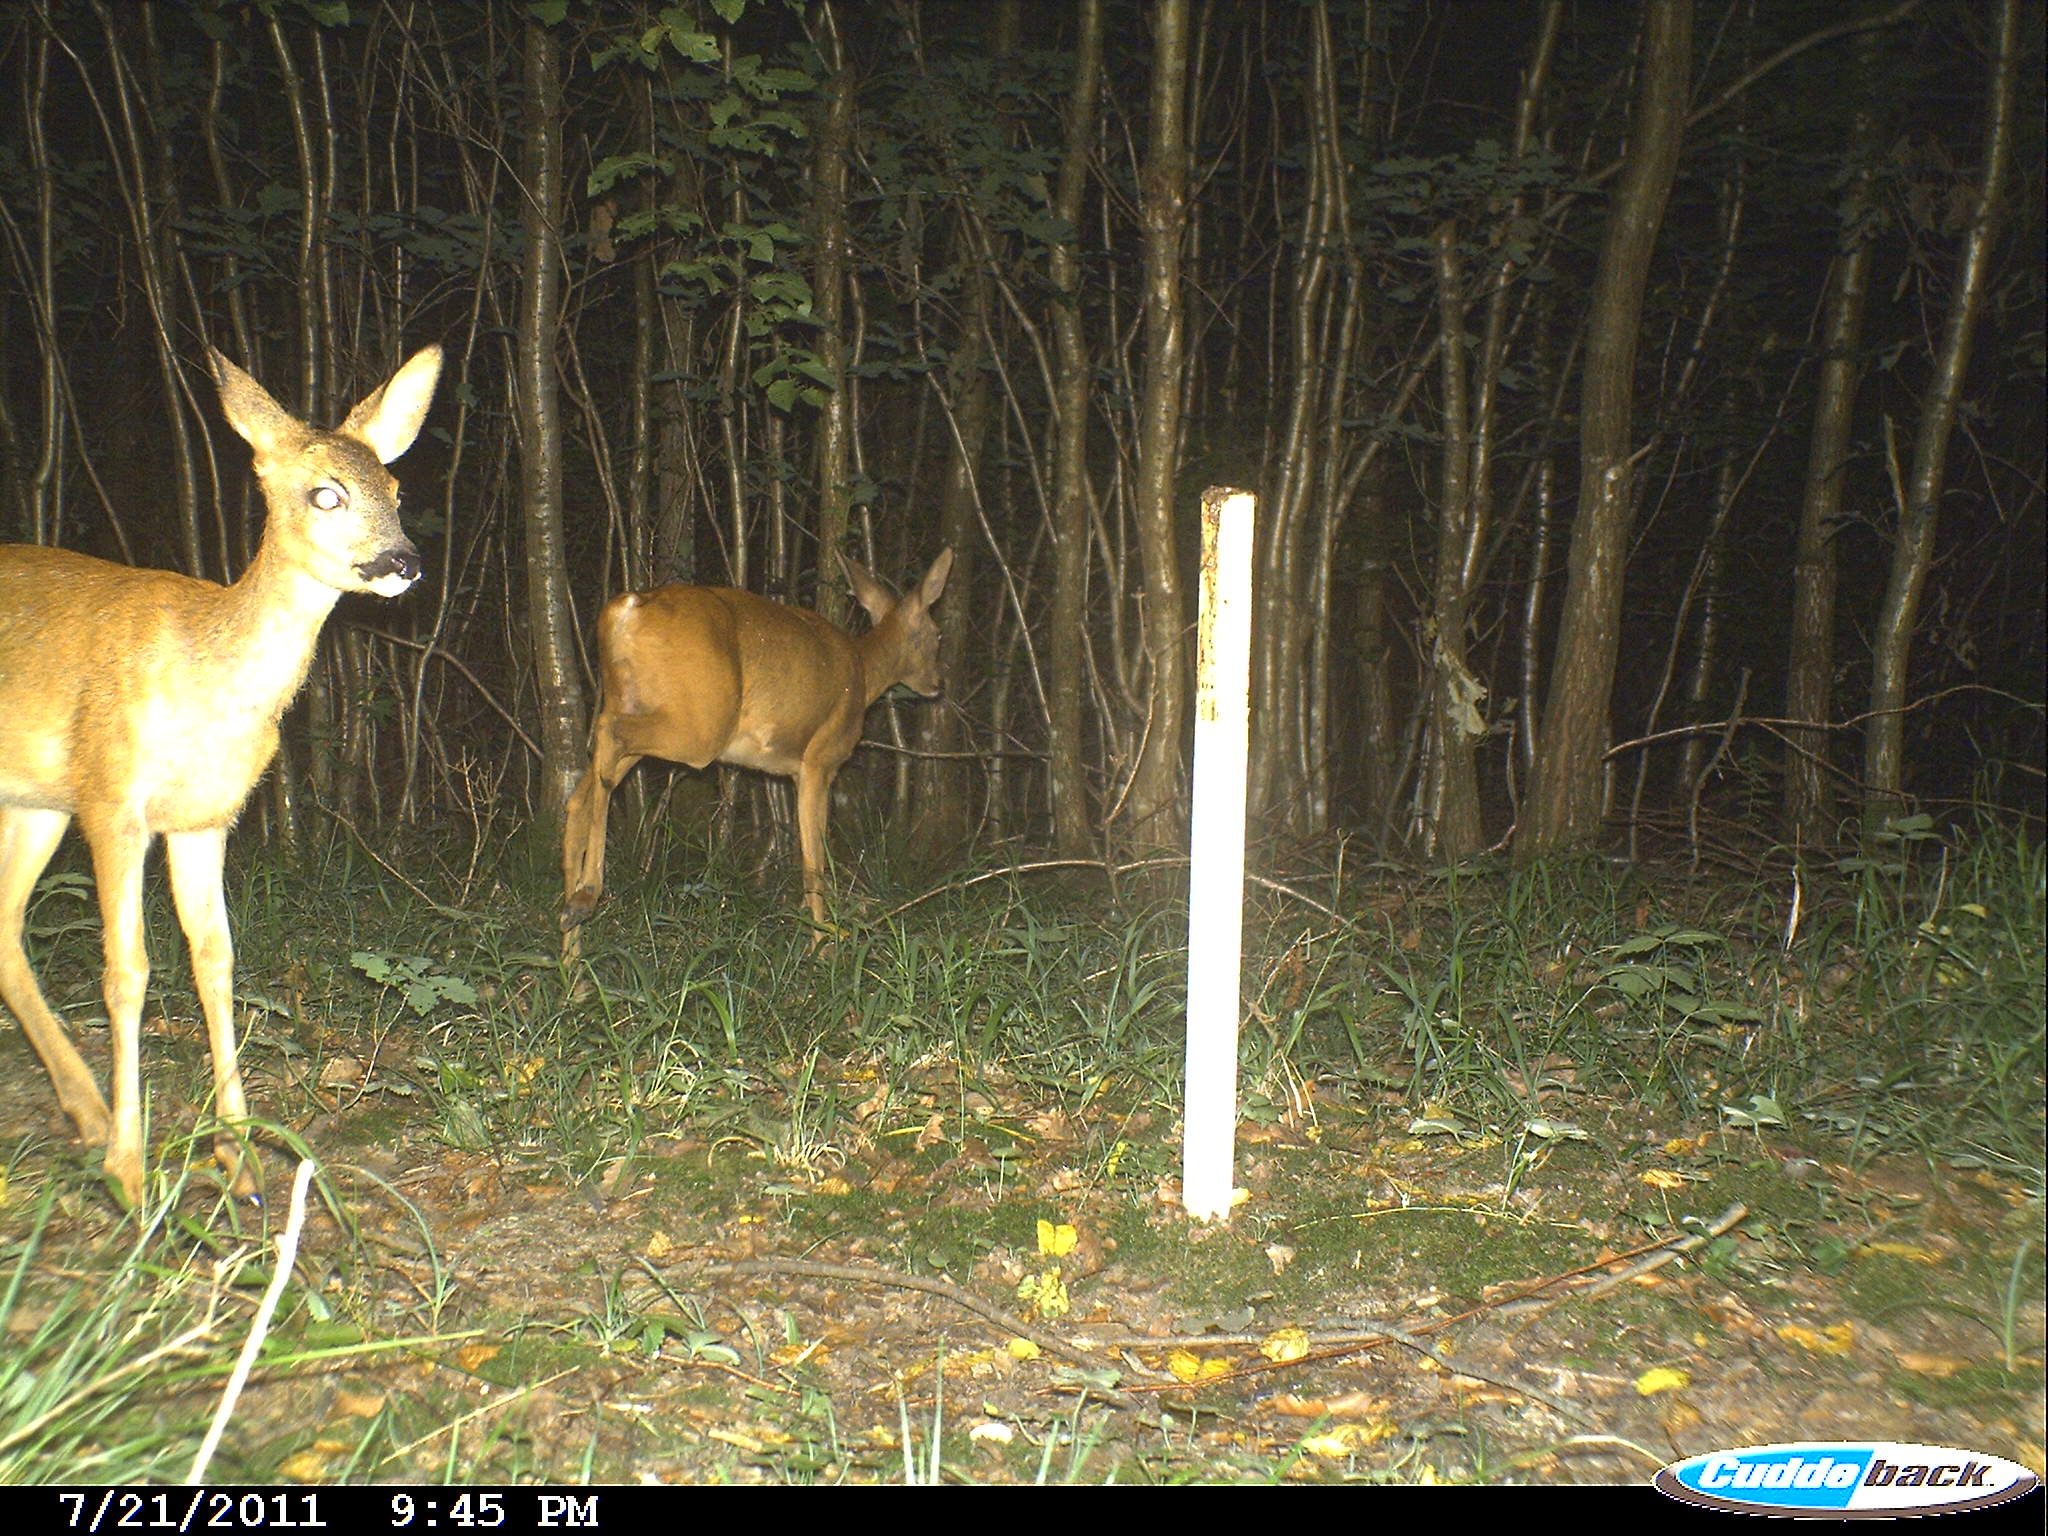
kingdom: Animalia
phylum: Chordata
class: Mammalia
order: Artiodactyla
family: Cervidae
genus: Capreolus
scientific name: Capreolus capreolus
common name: Western roe deer
